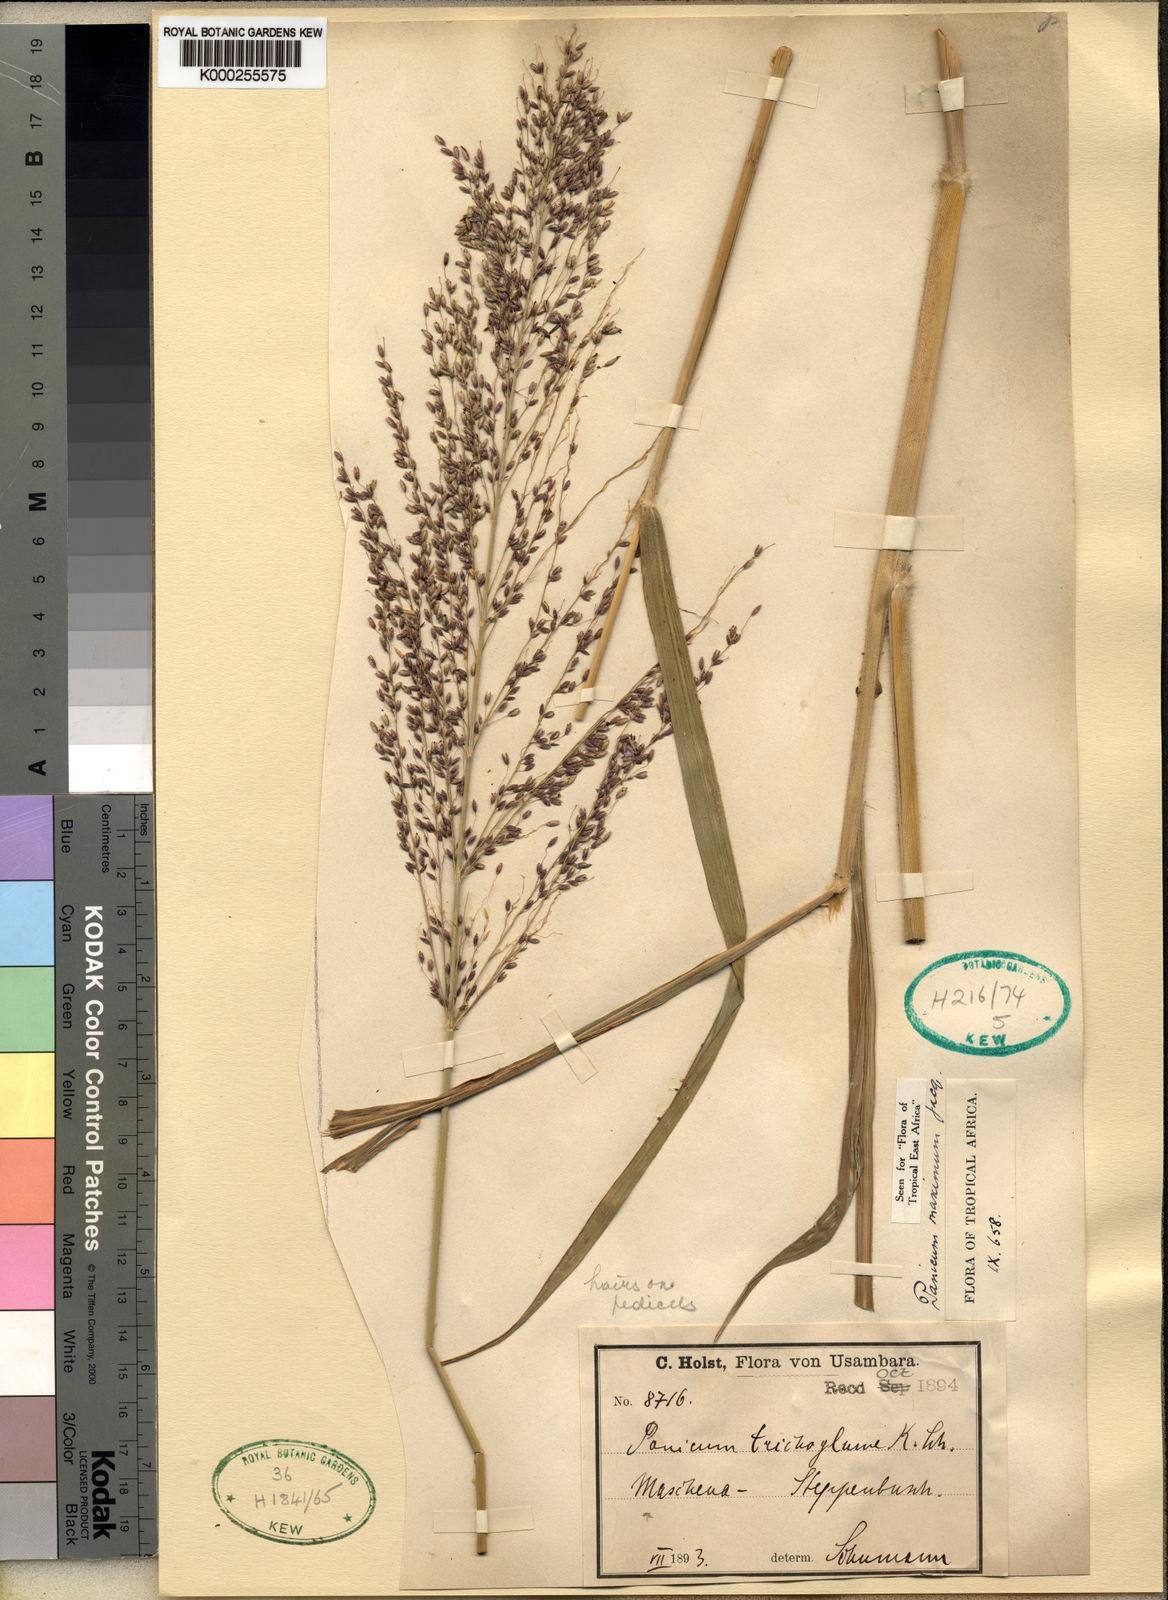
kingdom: Plantae
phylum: Tracheophyta
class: Liliopsida
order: Poales
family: Poaceae
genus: Megathyrsus
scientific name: Megathyrsus maximus
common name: Guineagrass
